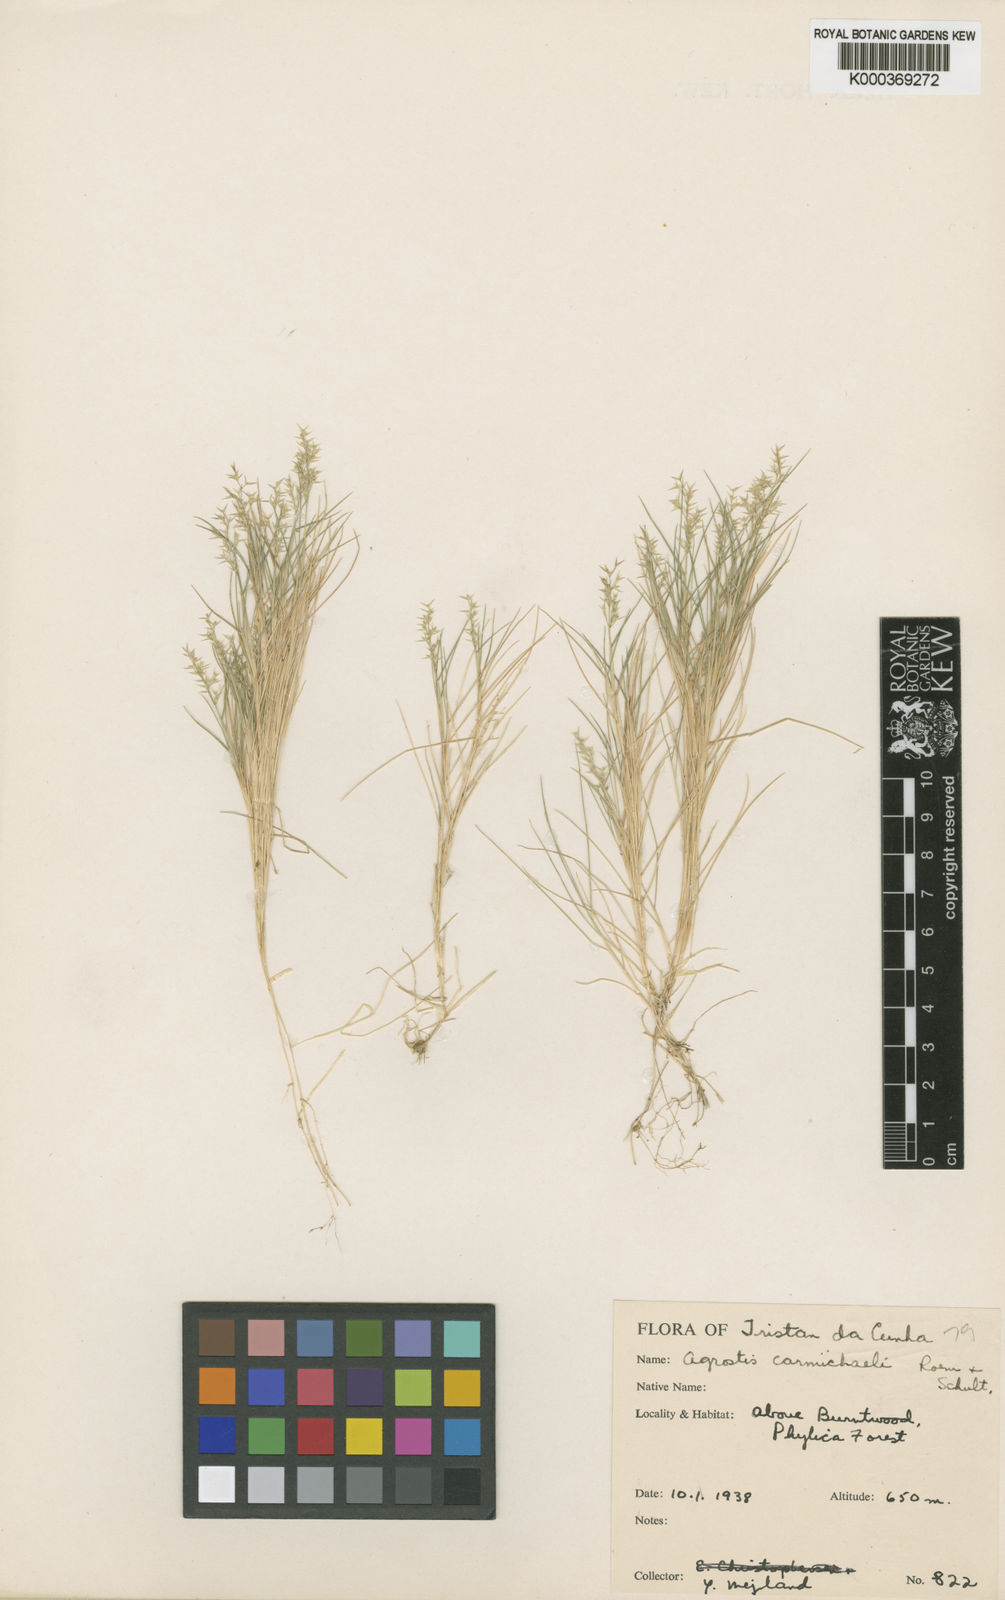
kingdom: Plantae
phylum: Tracheophyta
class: Liliopsida
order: Poales
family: Poaceae
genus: Agrostis
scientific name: Agrostis carmichaelii
